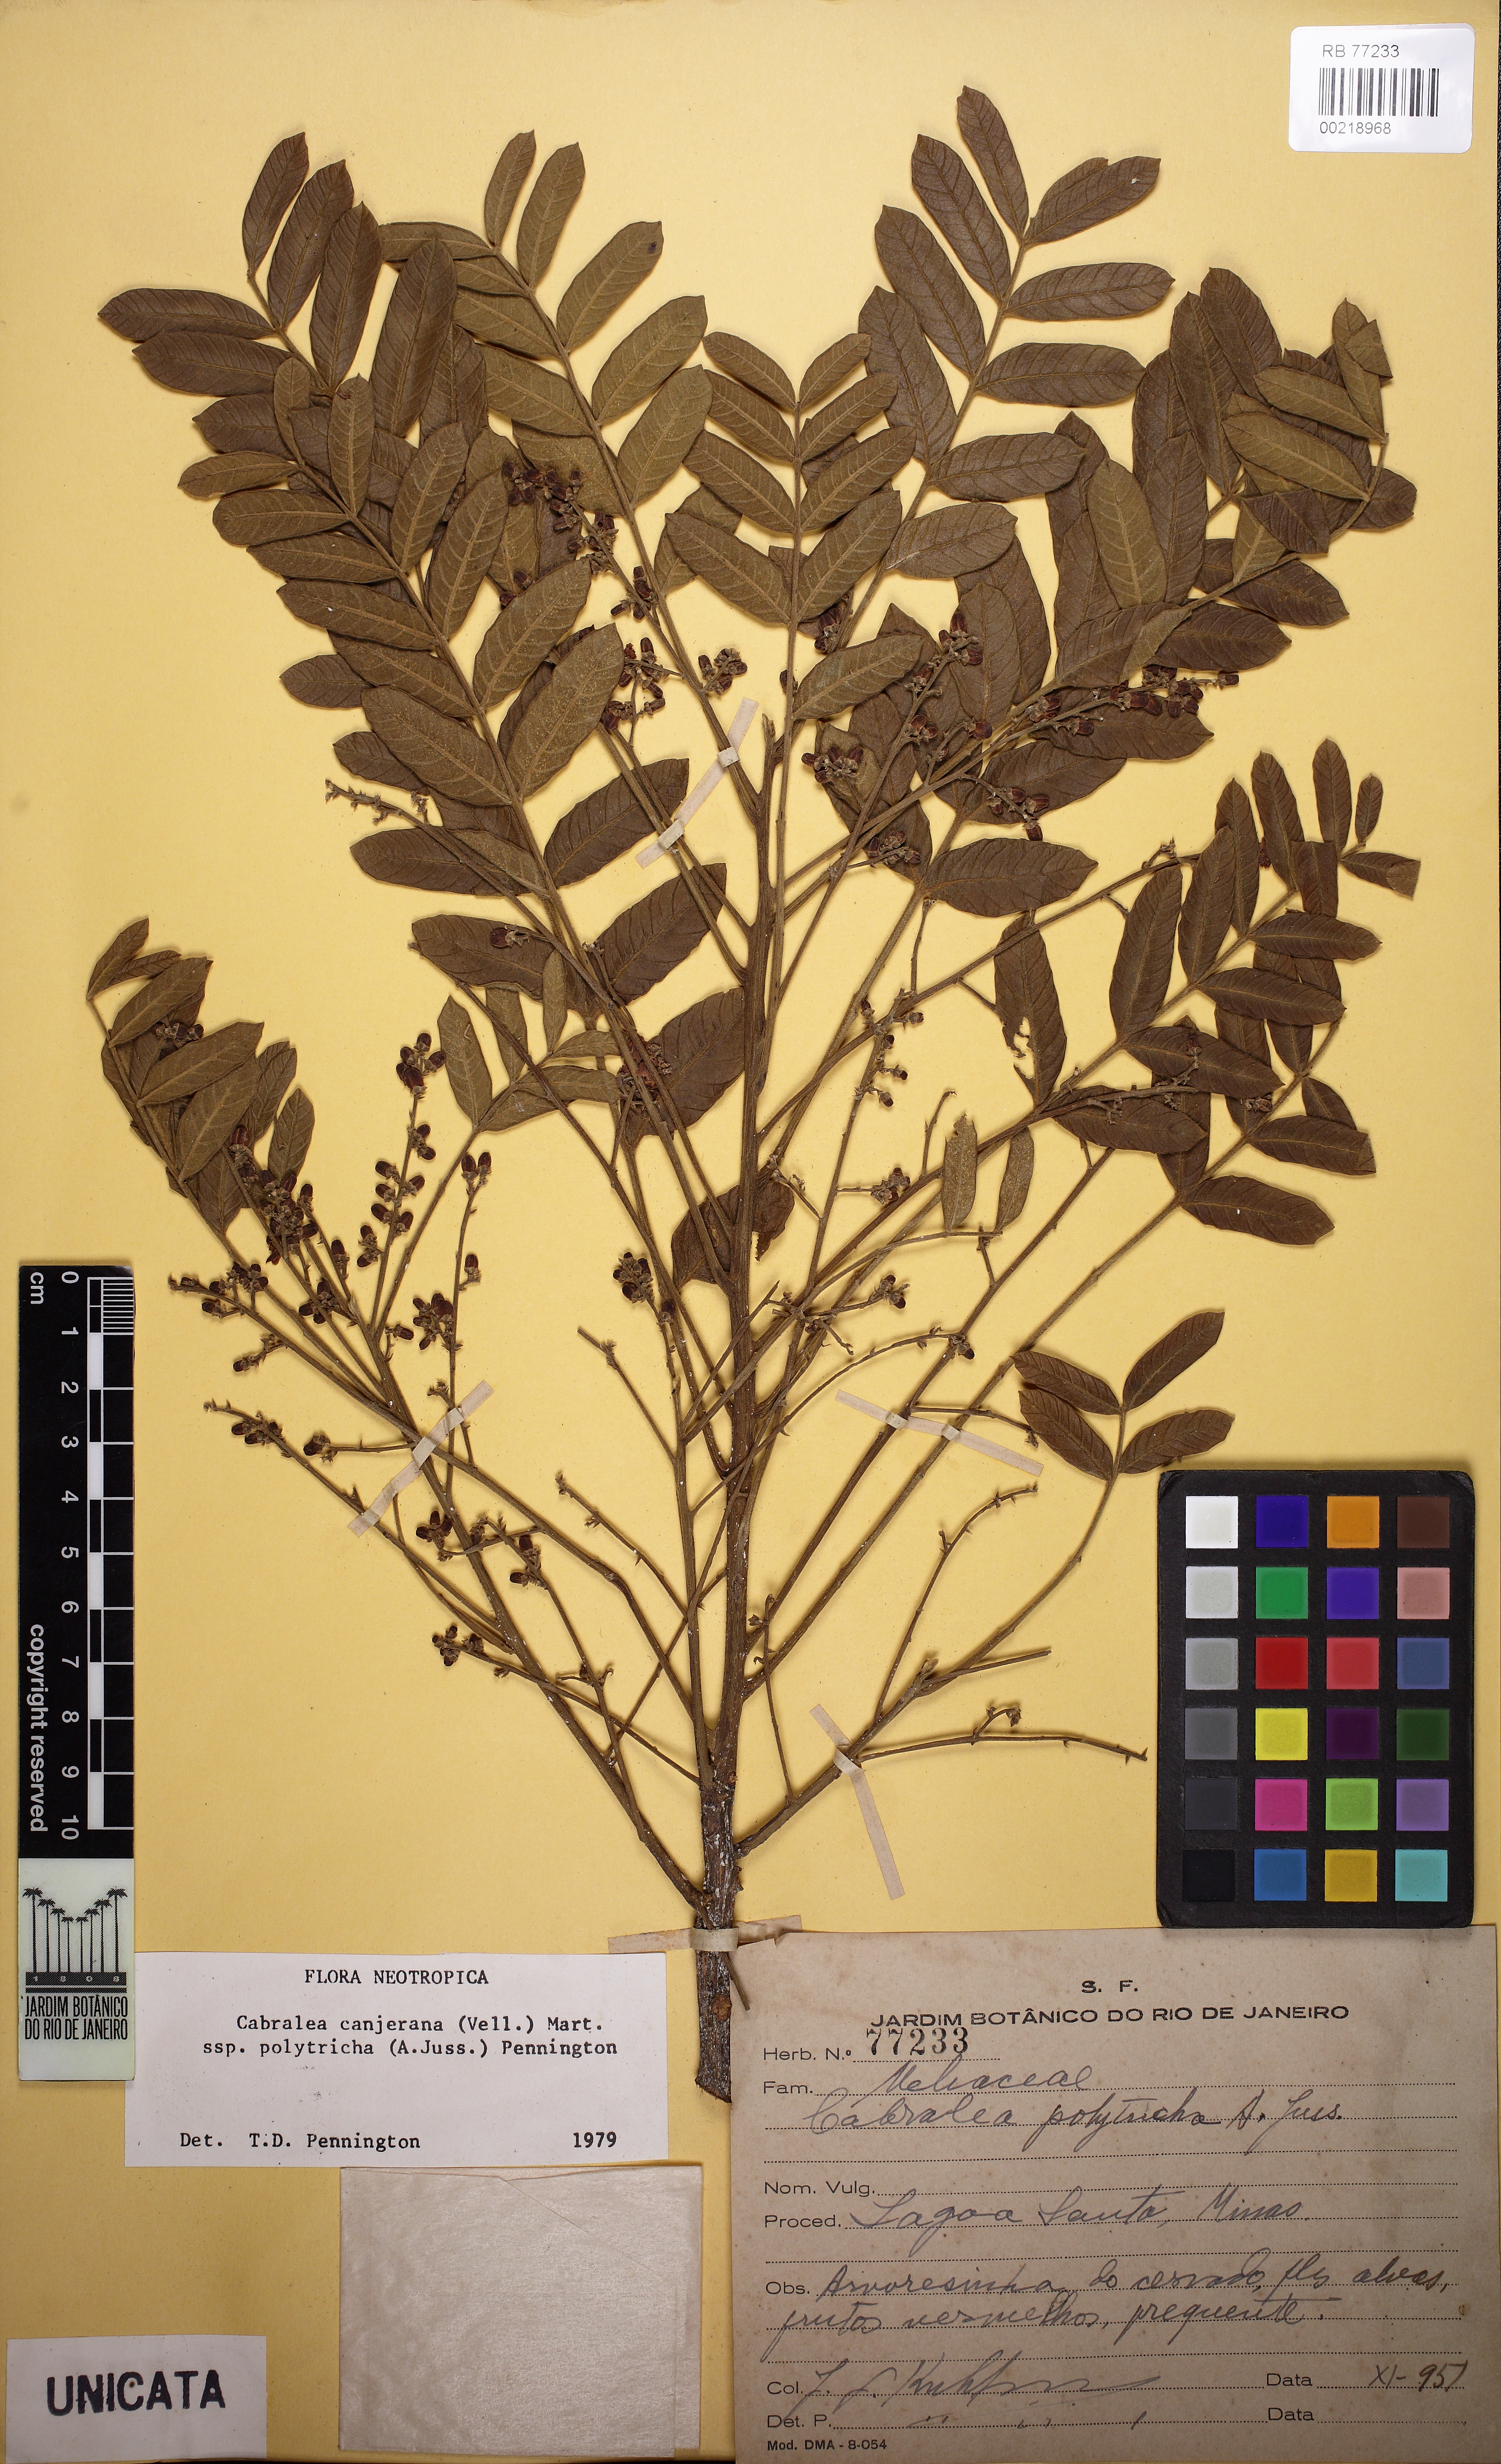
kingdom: Plantae
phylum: Tracheophyta
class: Magnoliopsida
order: Sapindales
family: Meliaceae
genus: Cabralea
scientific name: Cabralea canjerana
